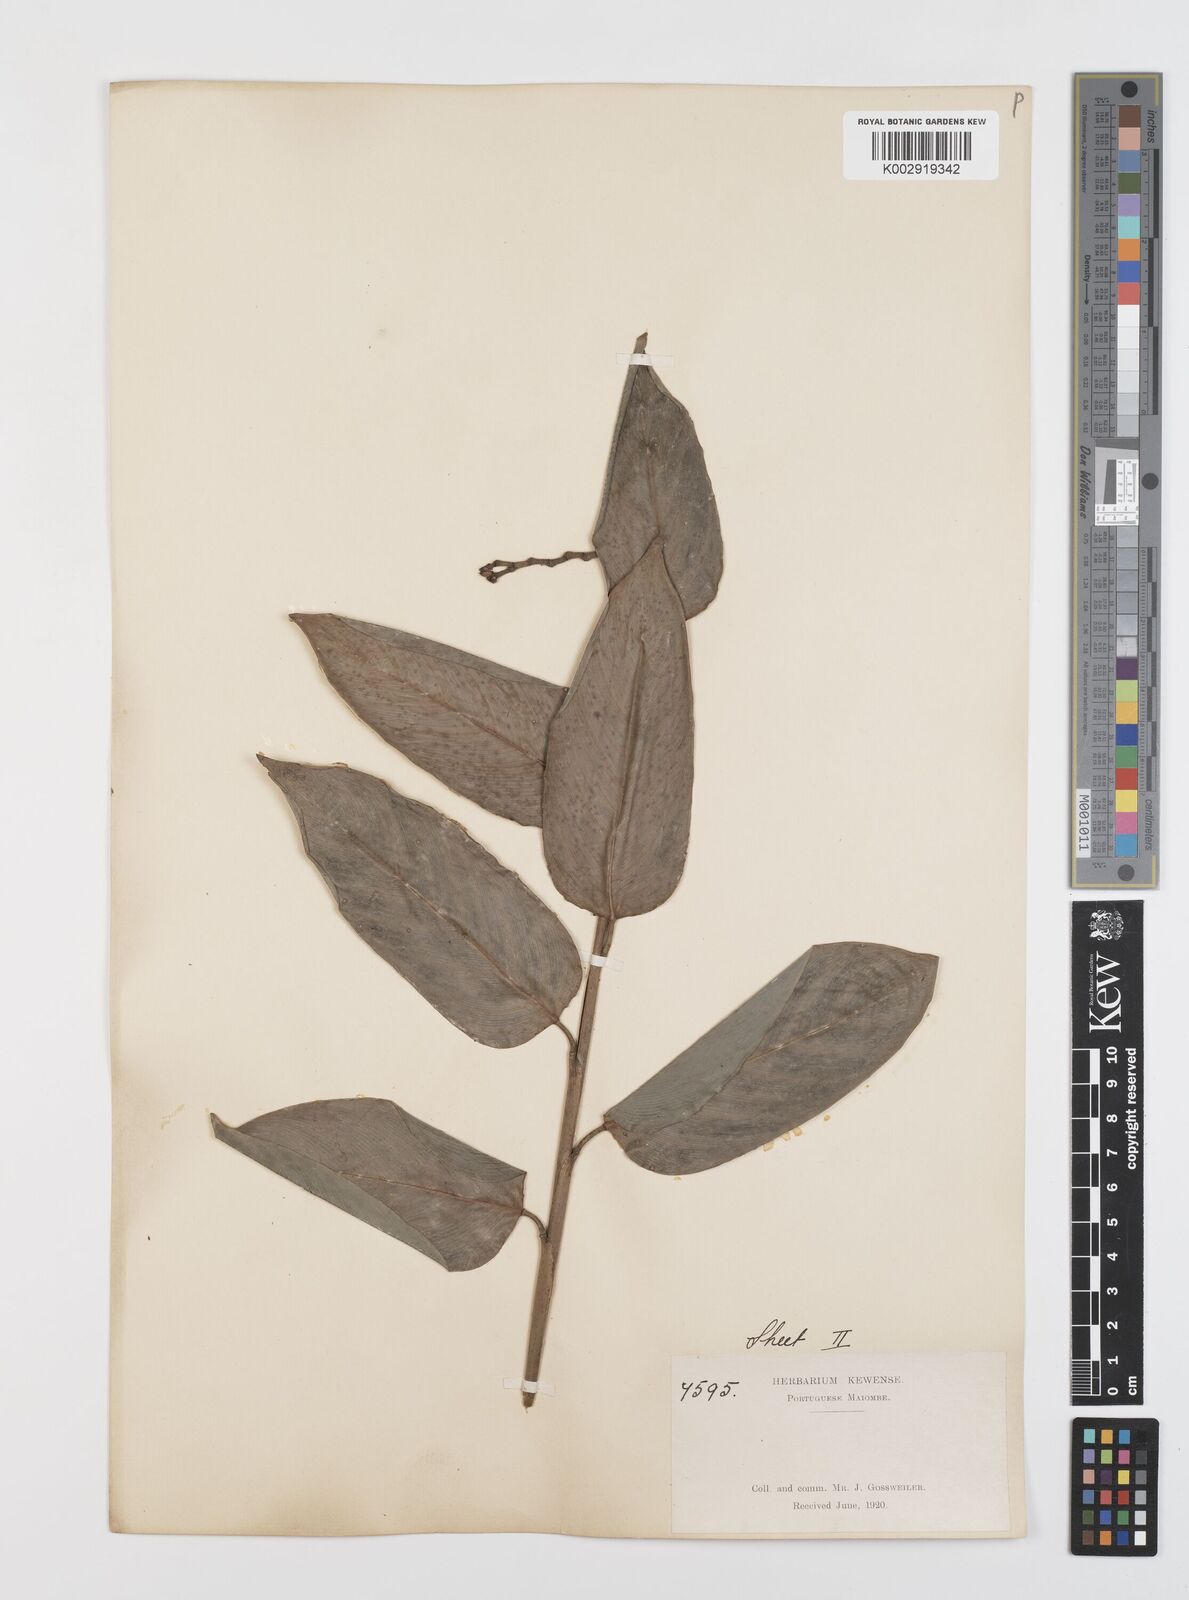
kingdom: Plantae
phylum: Tracheophyta
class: Liliopsida
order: Zingiberales
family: Marantaceae
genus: Hypselodelphys
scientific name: Hypselodelphys velutina
